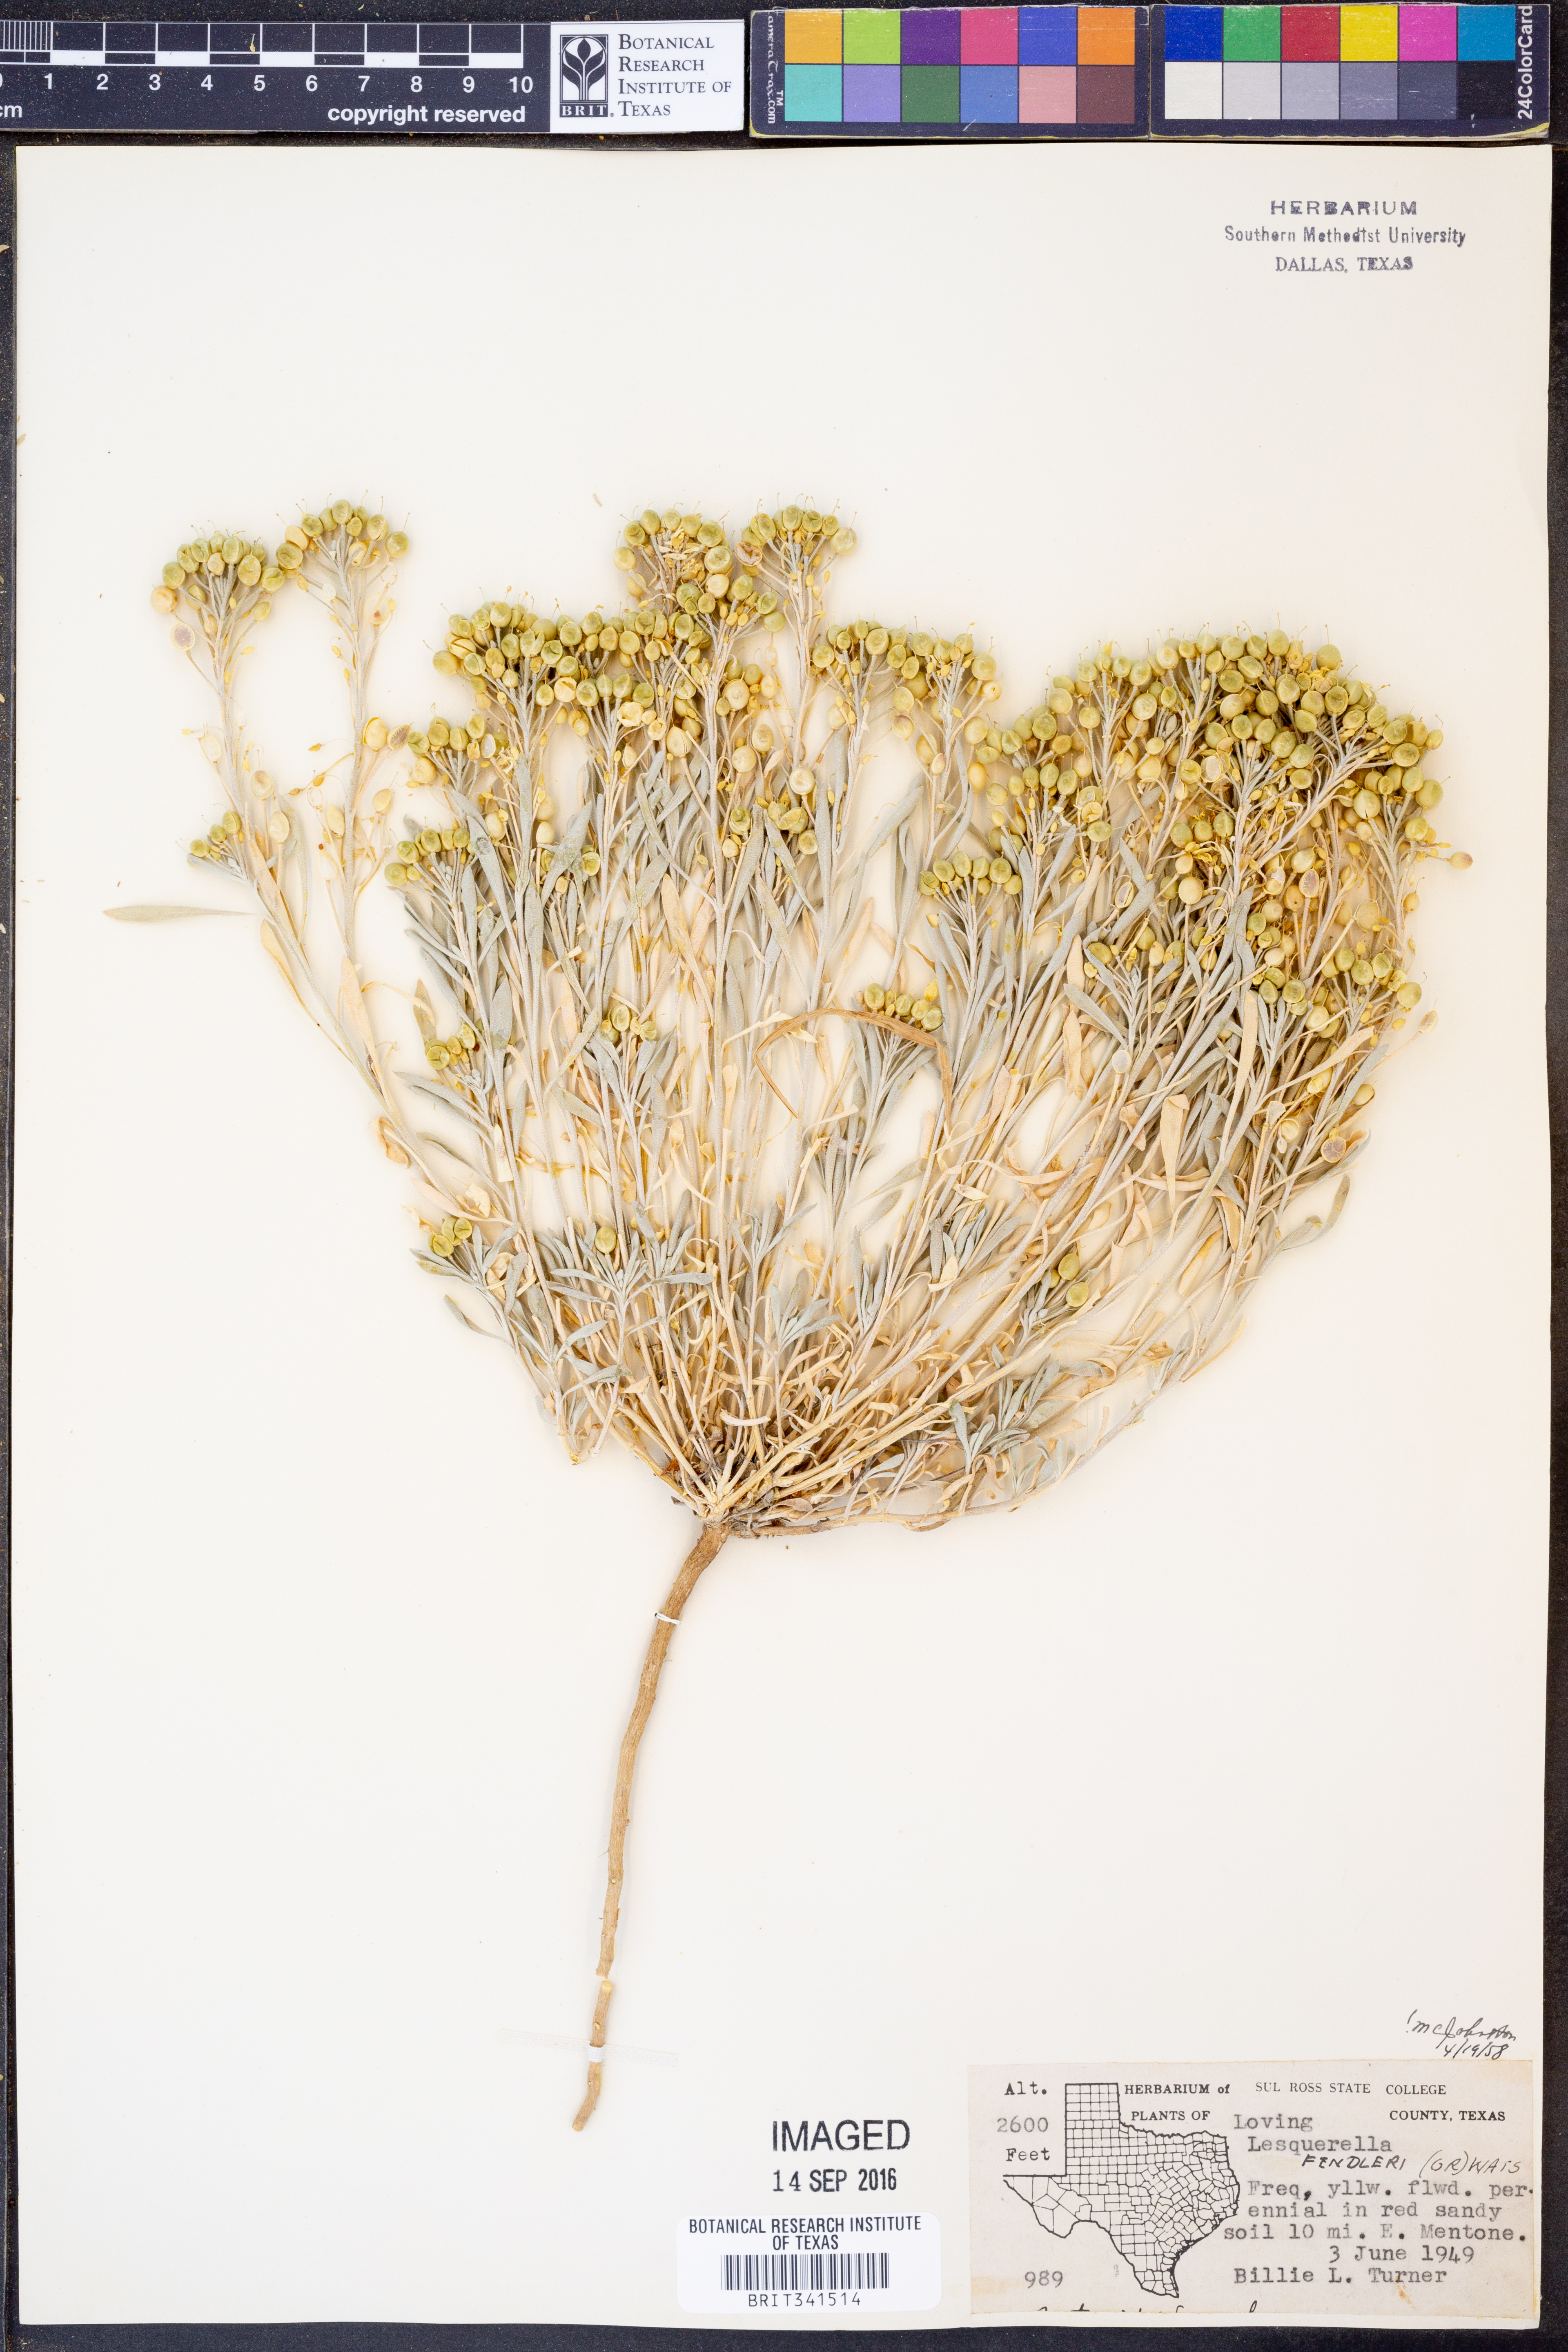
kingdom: Plantae
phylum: Tracheophyta
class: Magnoliopsida
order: Brassicales
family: Brassicaceae
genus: Physaria
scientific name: Physaria fendleri
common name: Fendler's bladderpod
